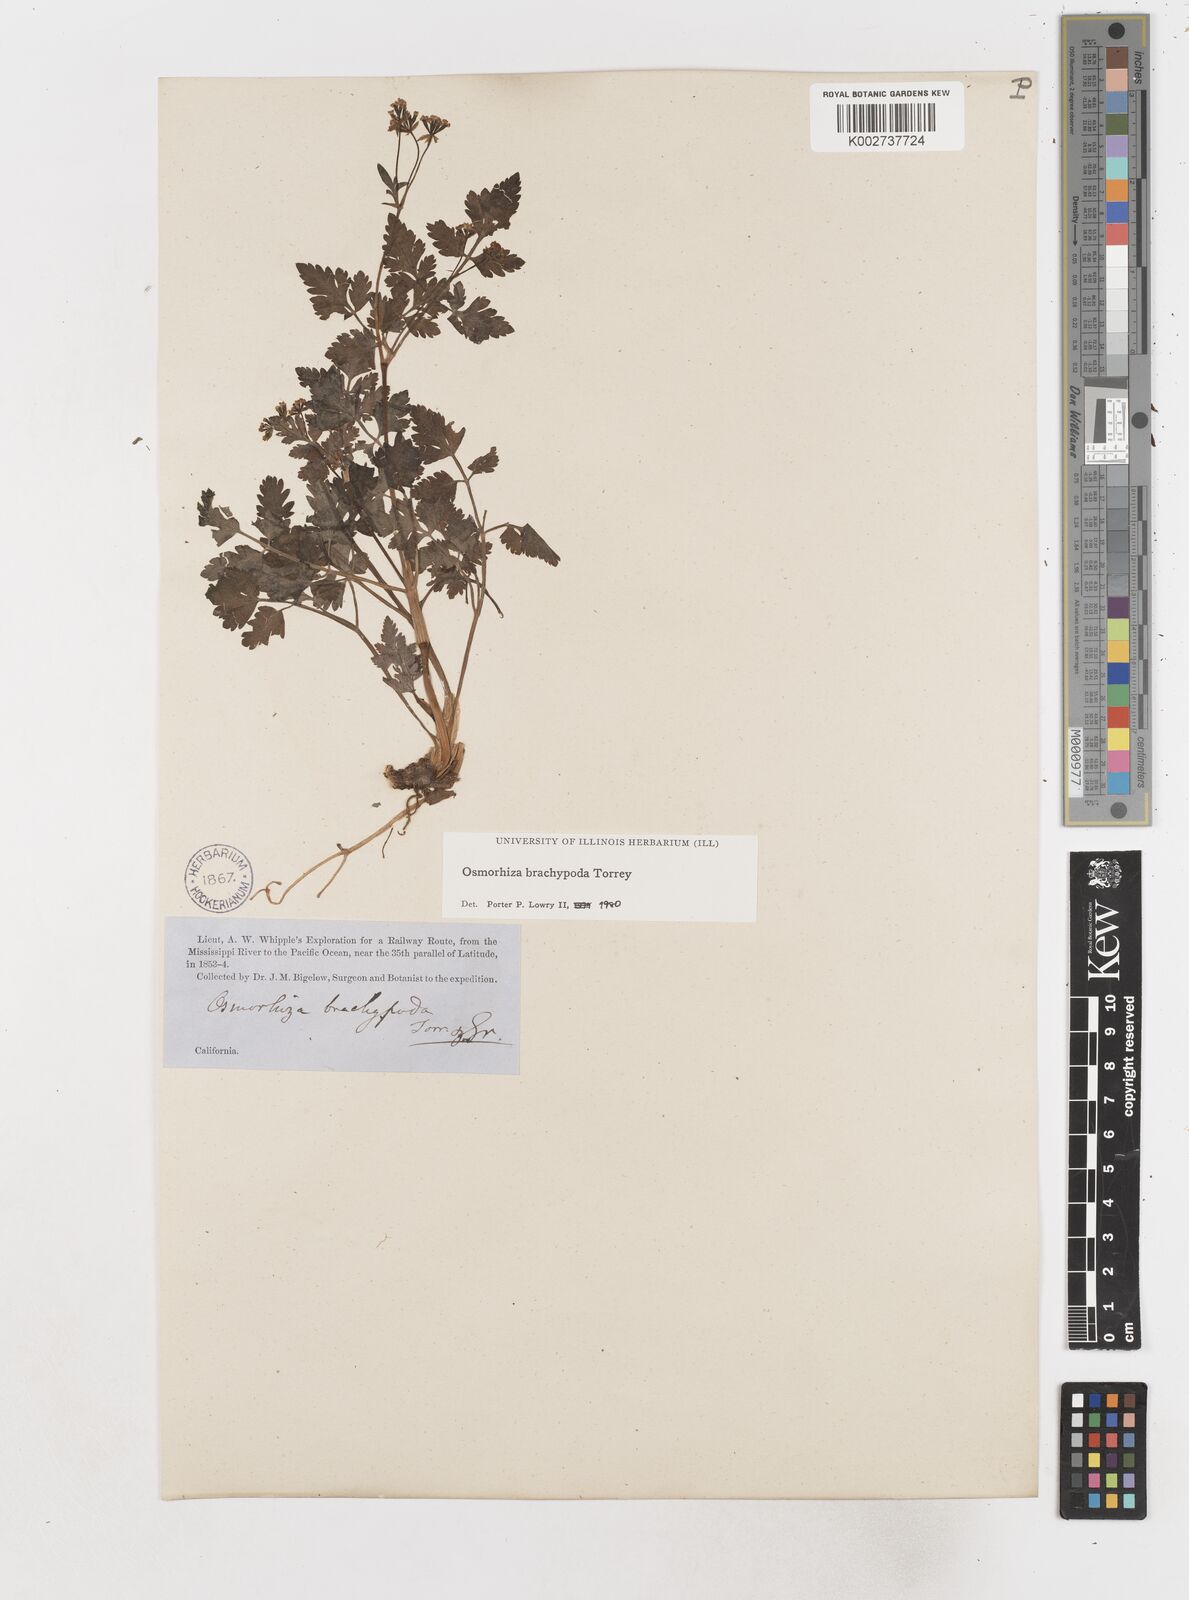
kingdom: Plantae
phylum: Tracheophyta
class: Magnoliopsida
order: Apiales
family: Apiaceae
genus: Osmorhiza
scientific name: Osmorhiza brachypoda
